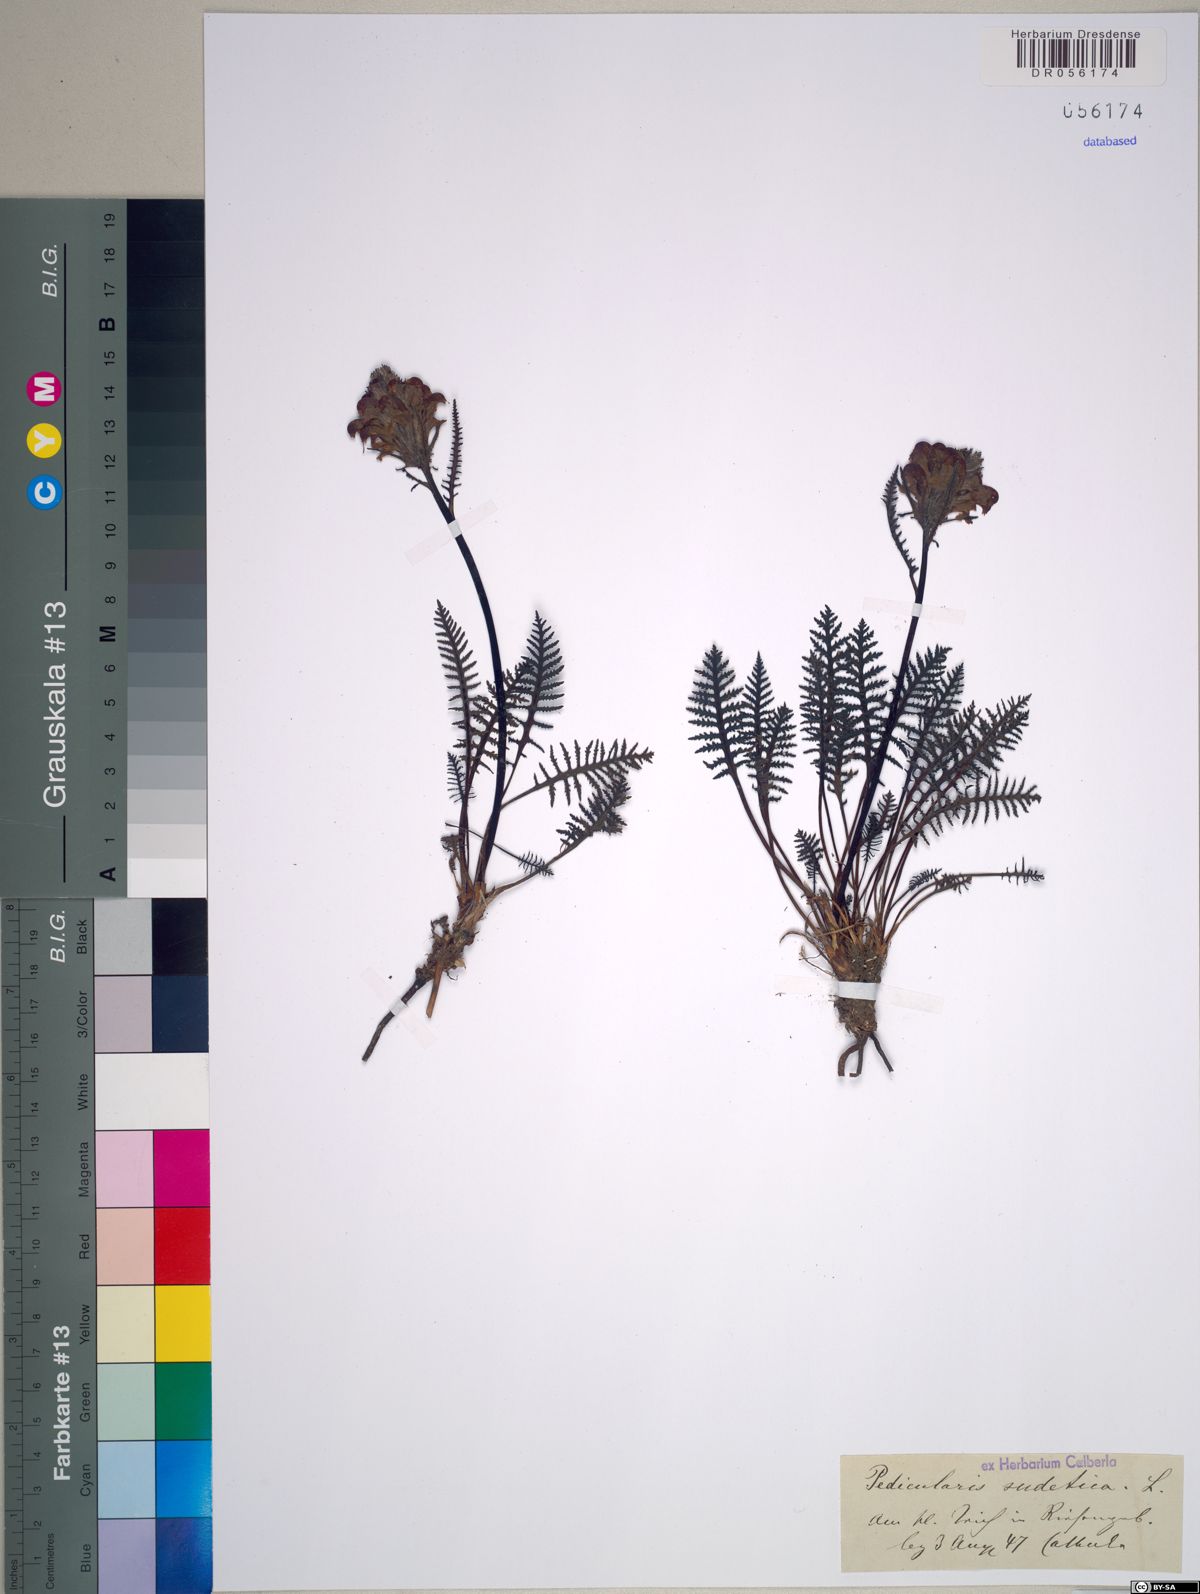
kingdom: Plantae
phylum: Tracheophyta
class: Magnoliopsida
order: Lamiales
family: Orobanchaceae
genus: Pedicularis
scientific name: Pedicularis sudetica
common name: Sudeten lousewort
